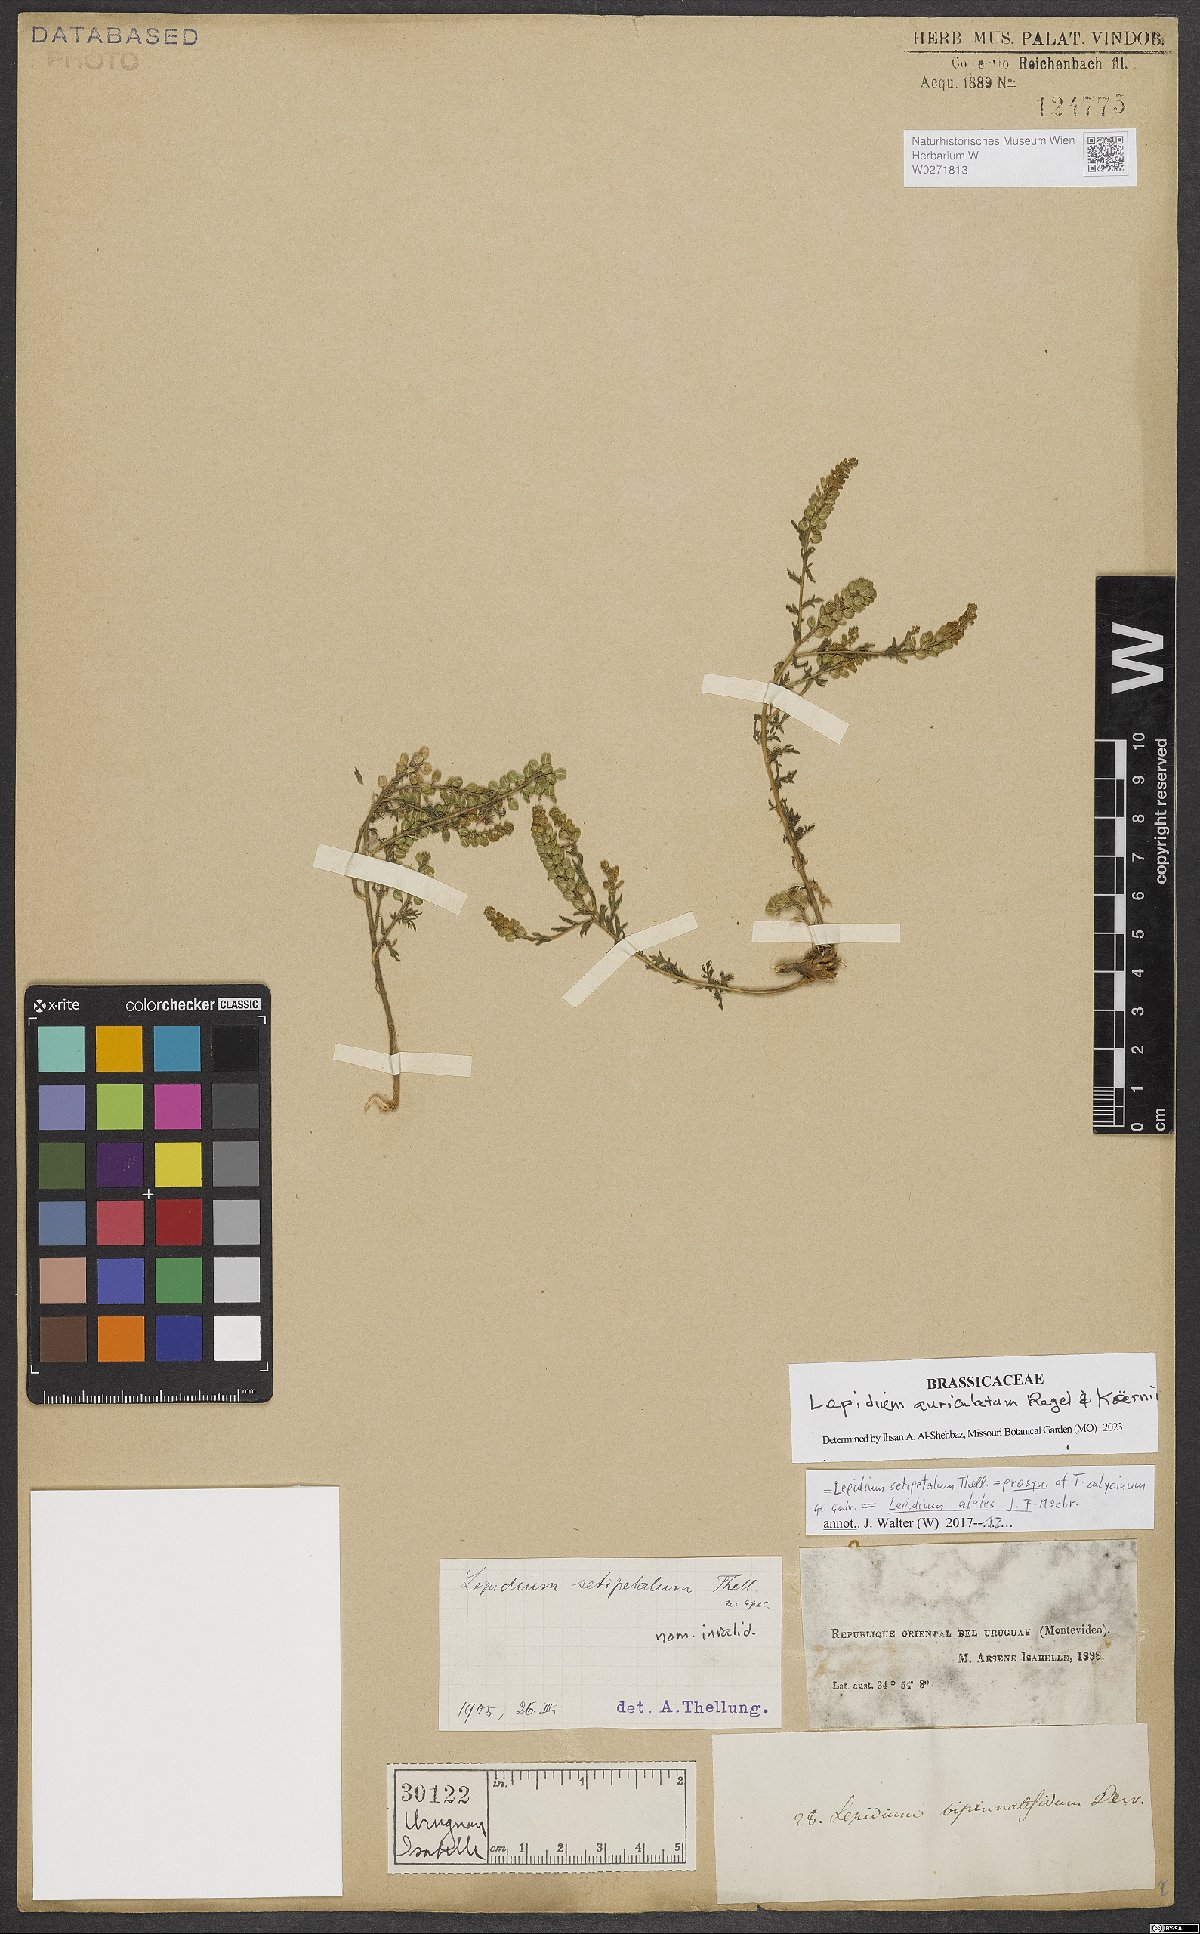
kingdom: Plantae
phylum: Tracheophyta
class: Magnoliopsida
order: Brassicales
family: Brassicaceae
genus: Lepidium
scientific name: Lepidium auriculatum
